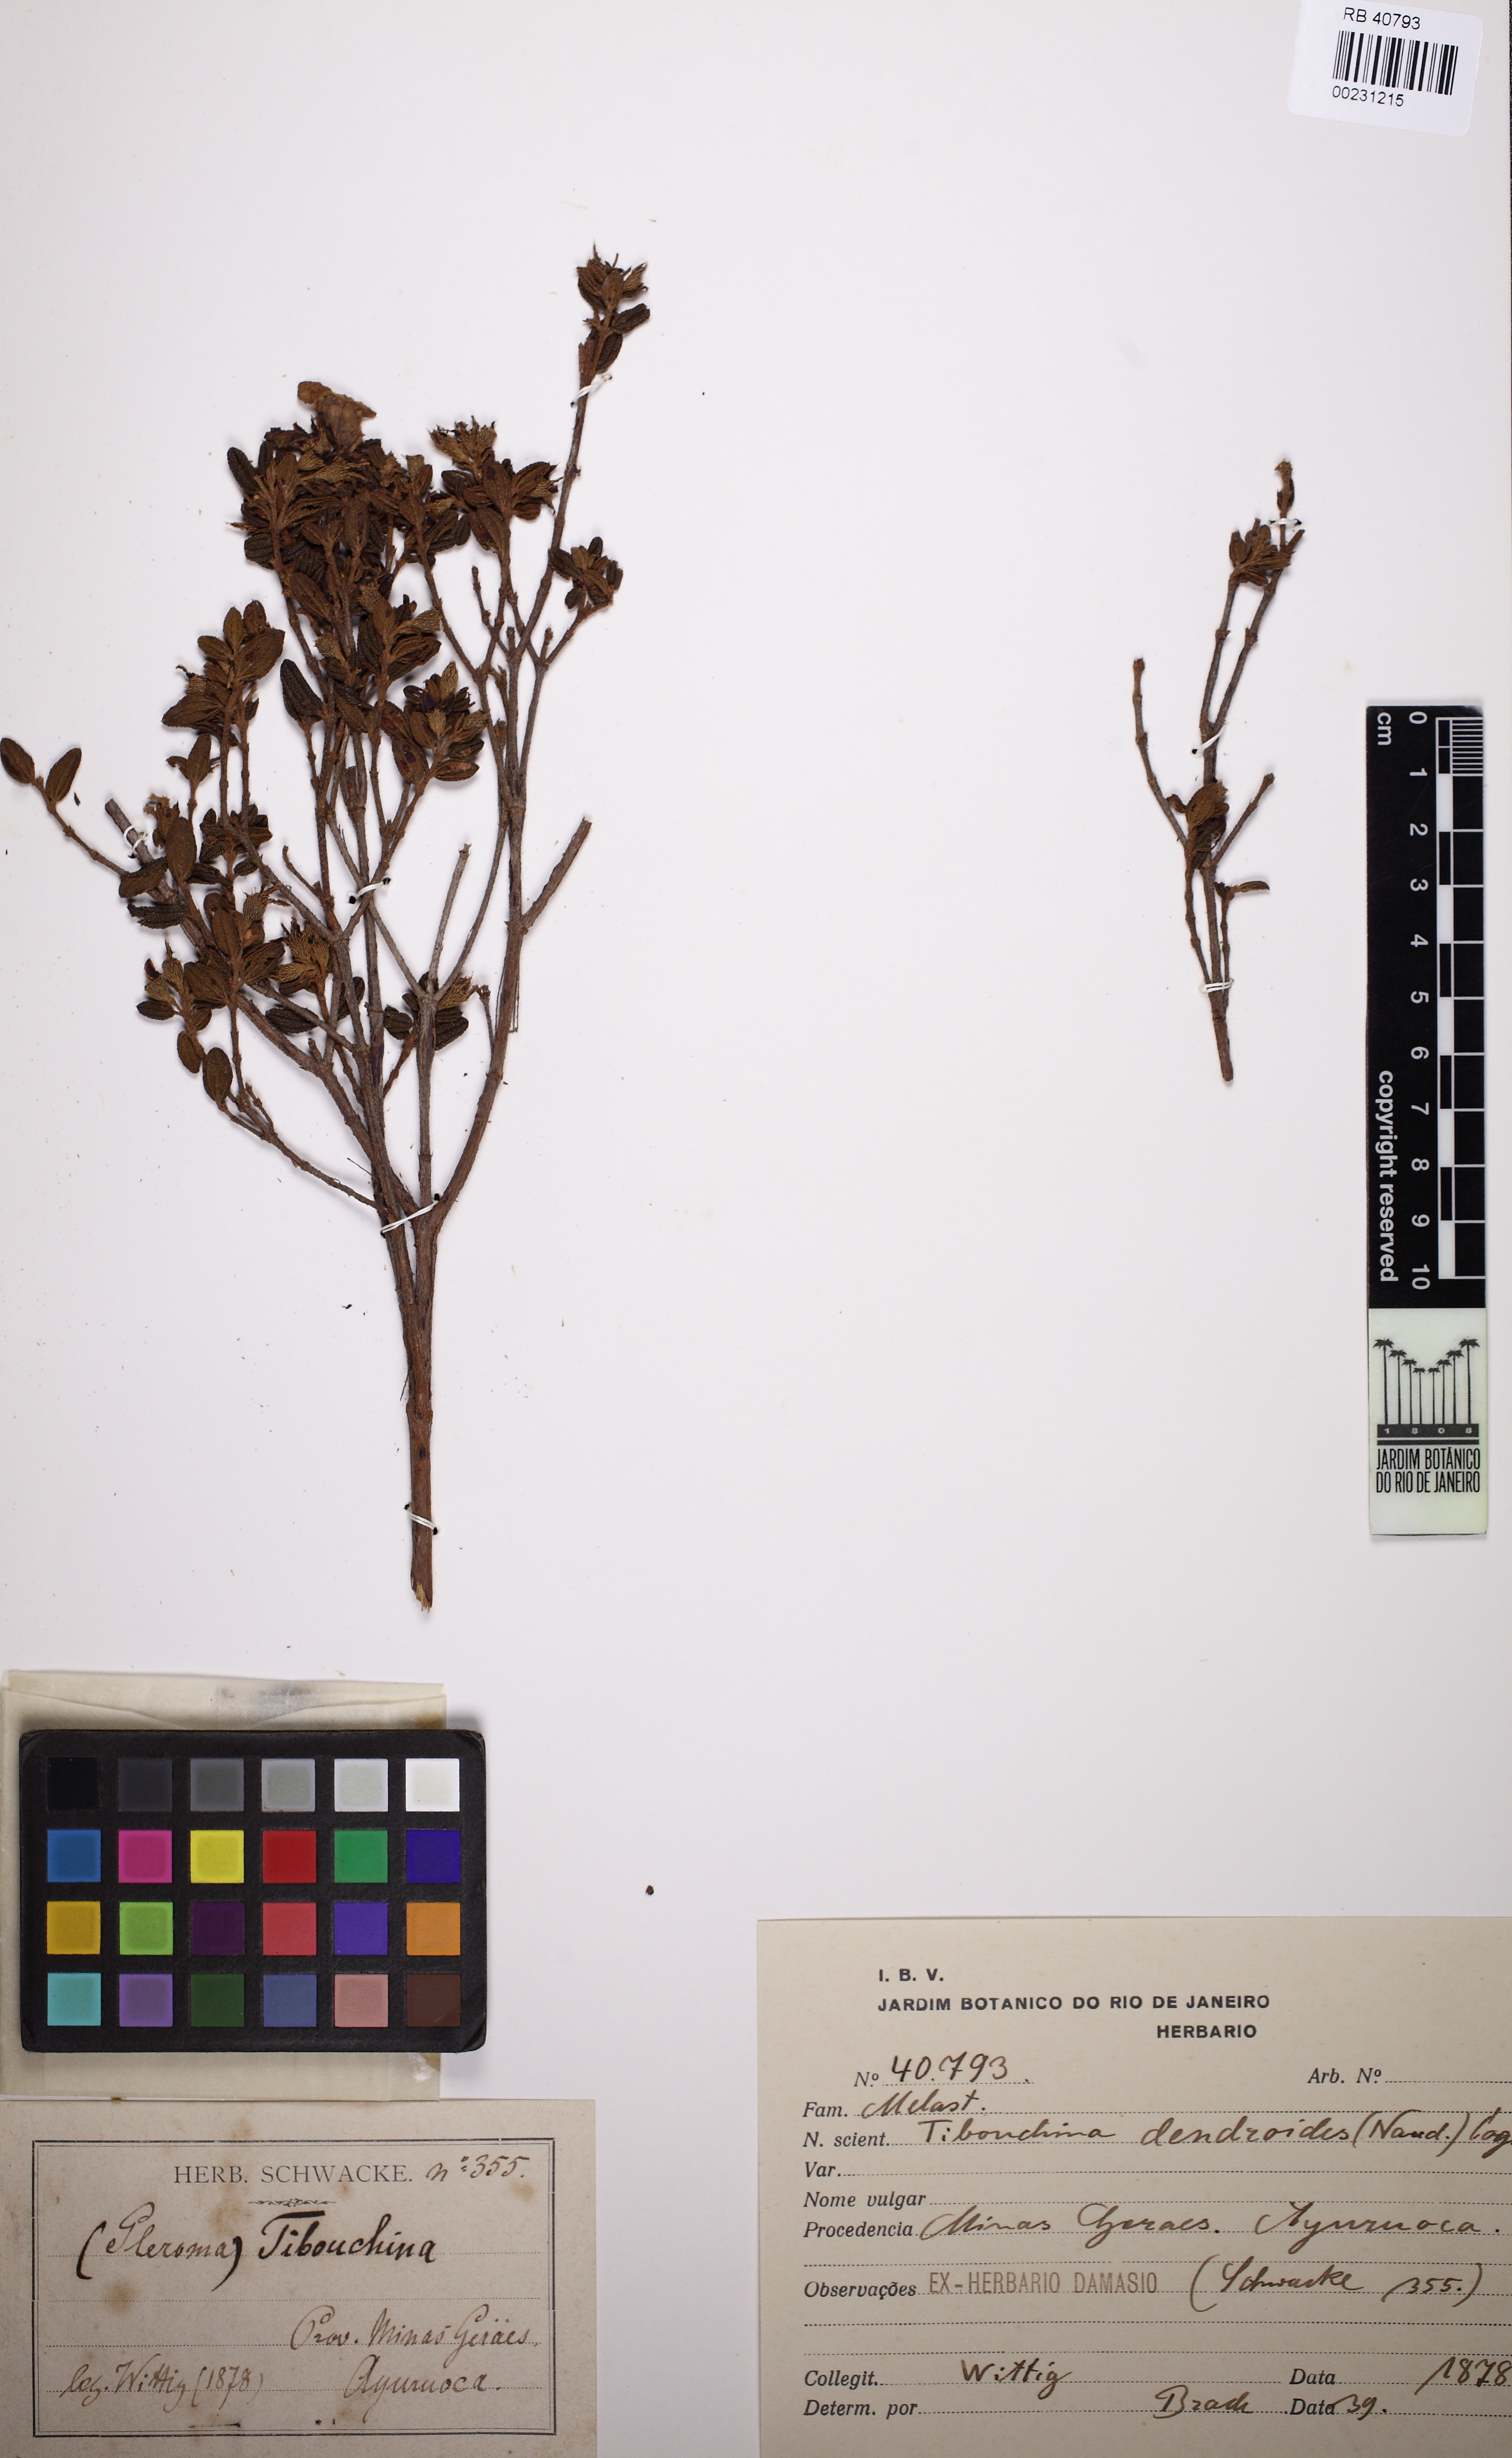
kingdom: Plantae
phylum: Tracheophyta
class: Magnoliopsida
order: Myrtales
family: Melastomataceae
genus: Pleroma
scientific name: Pleroma dendroides
